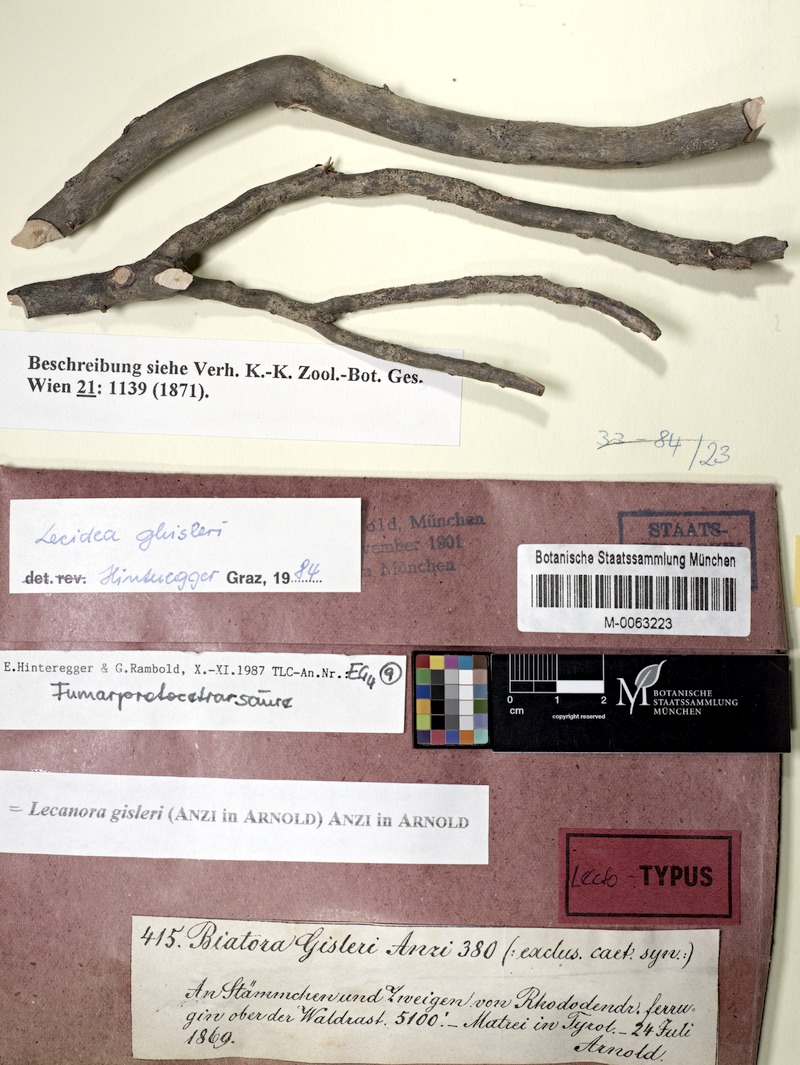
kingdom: Fungi
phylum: Ascomycota
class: Lecanoromycetes
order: Lecanorales
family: Lecanoraceae
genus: Lecanora
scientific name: Lecanora gisleriana
